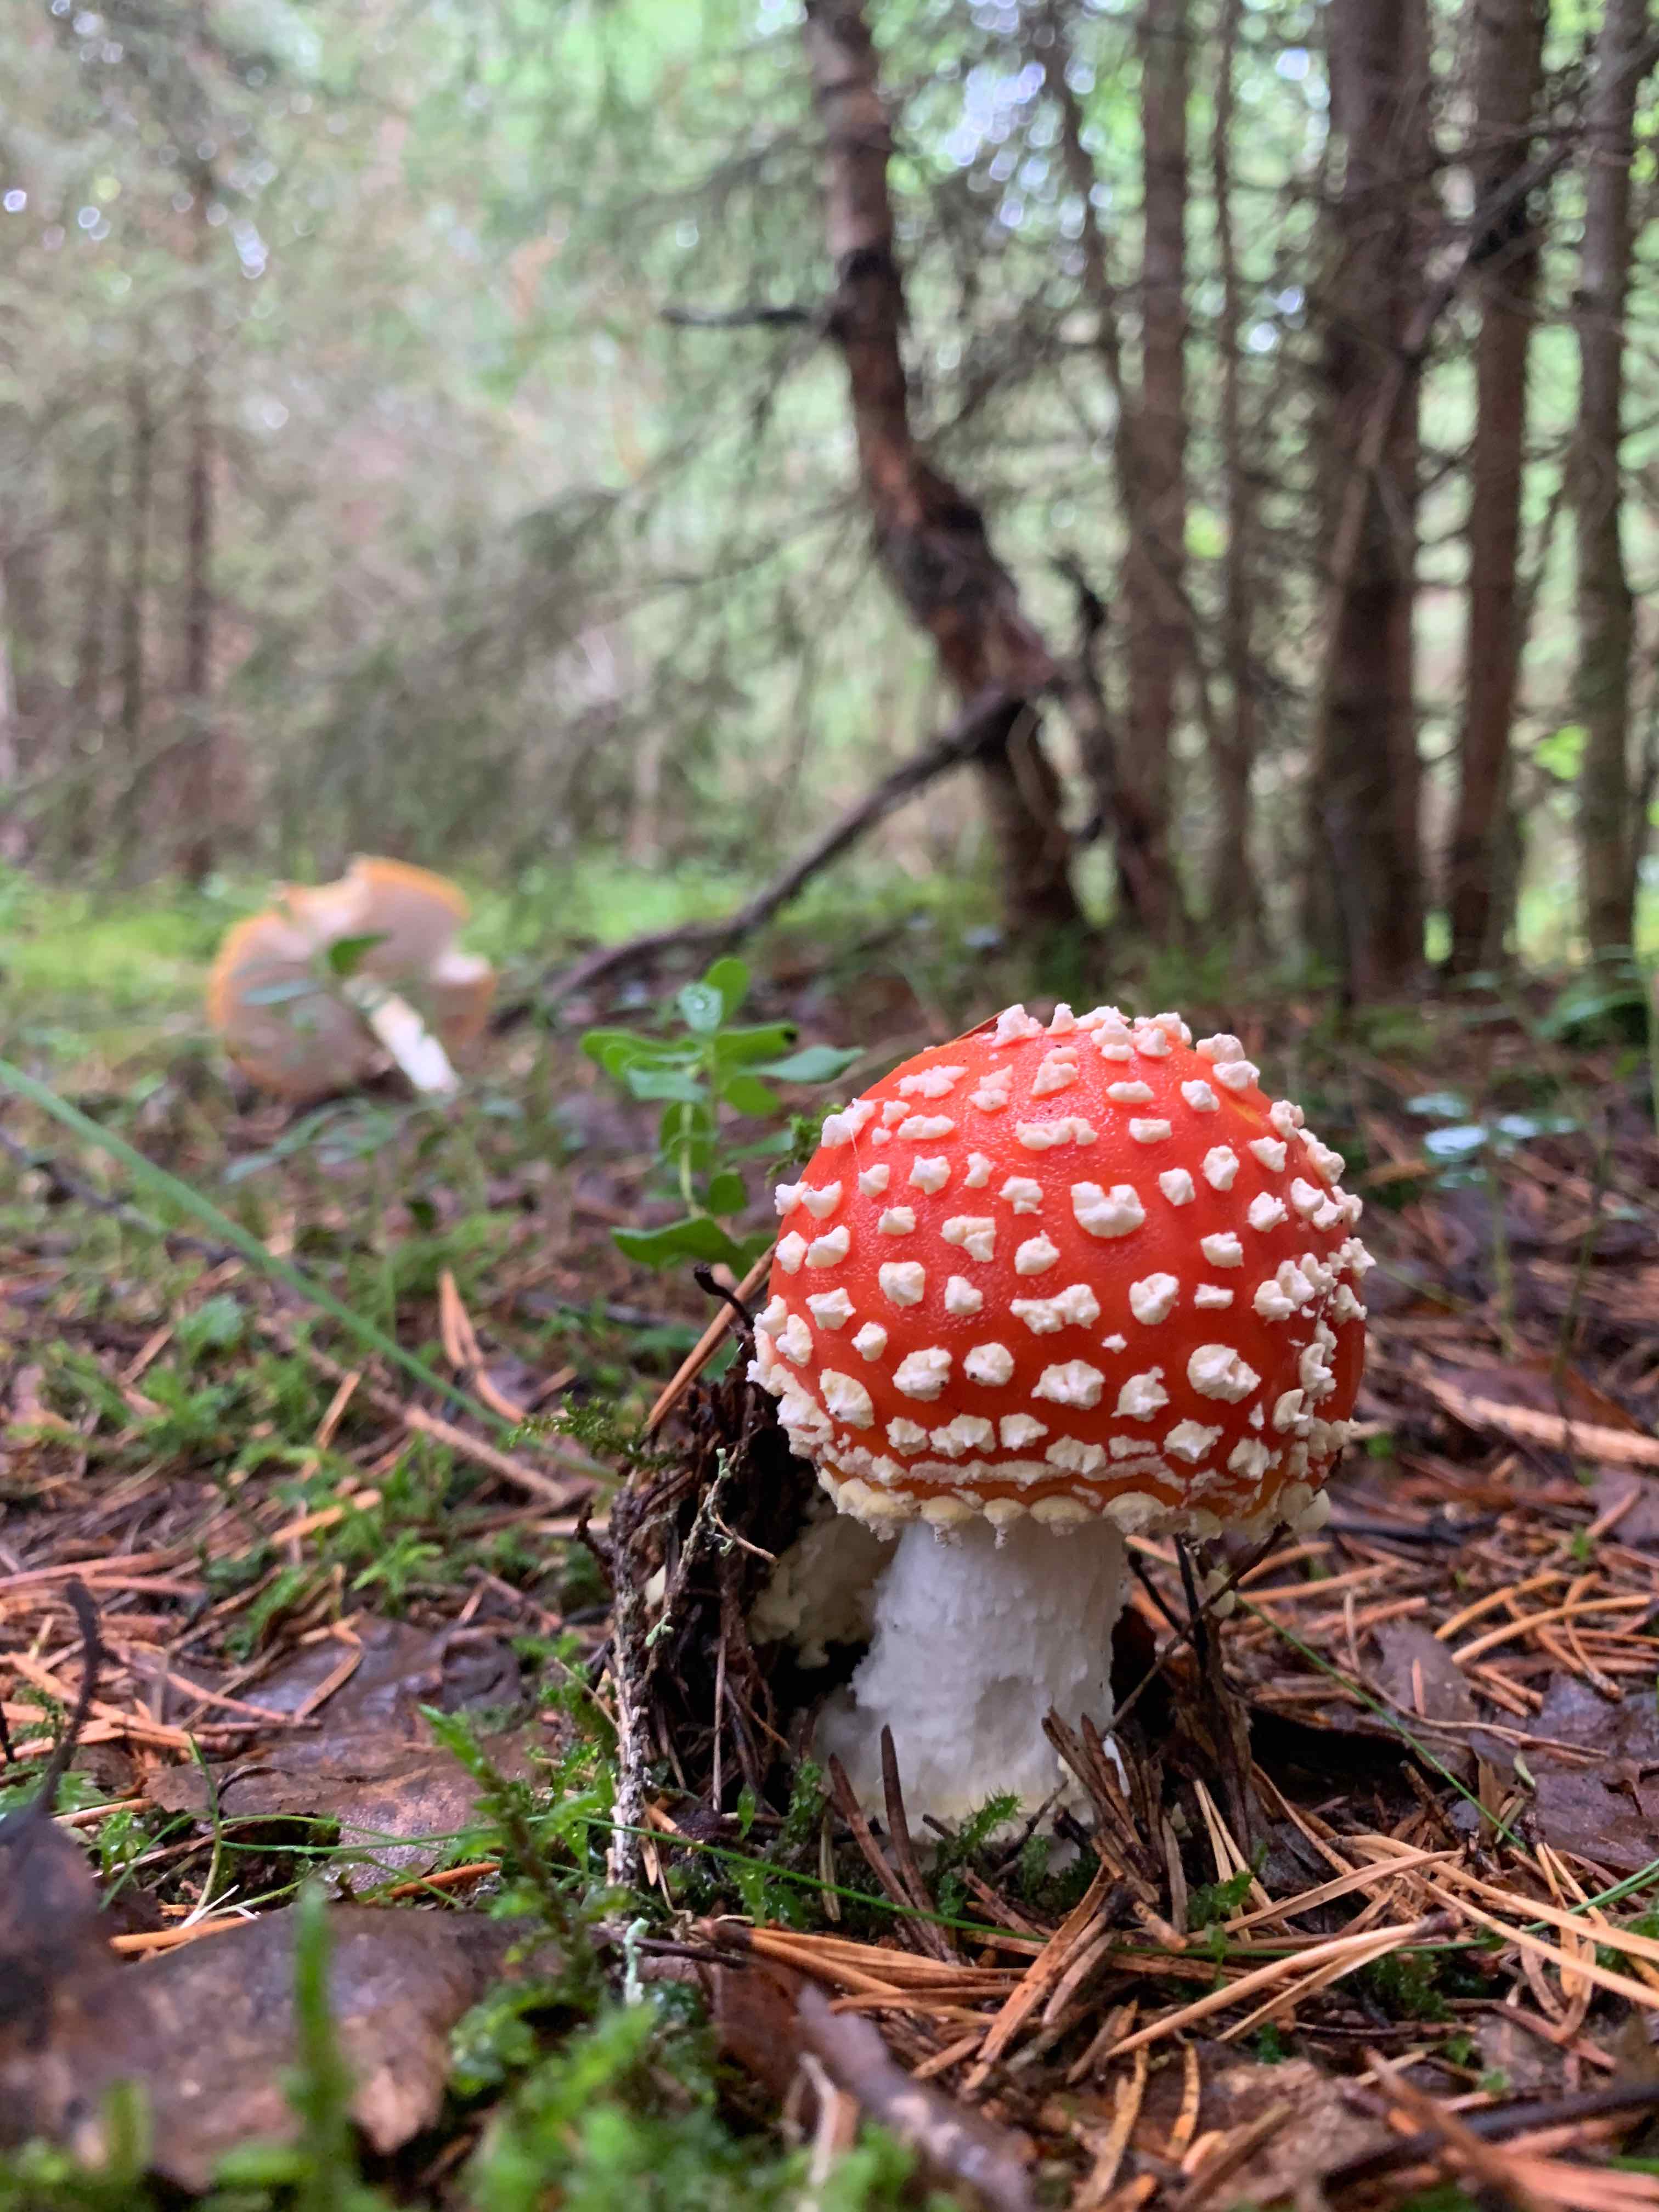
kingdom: Fungi
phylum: Basidiomycota
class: Agaricomycetes
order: Agaricales
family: Amanitaceae
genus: Amanita
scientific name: Amanita muscaria
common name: rød fluesvamp
